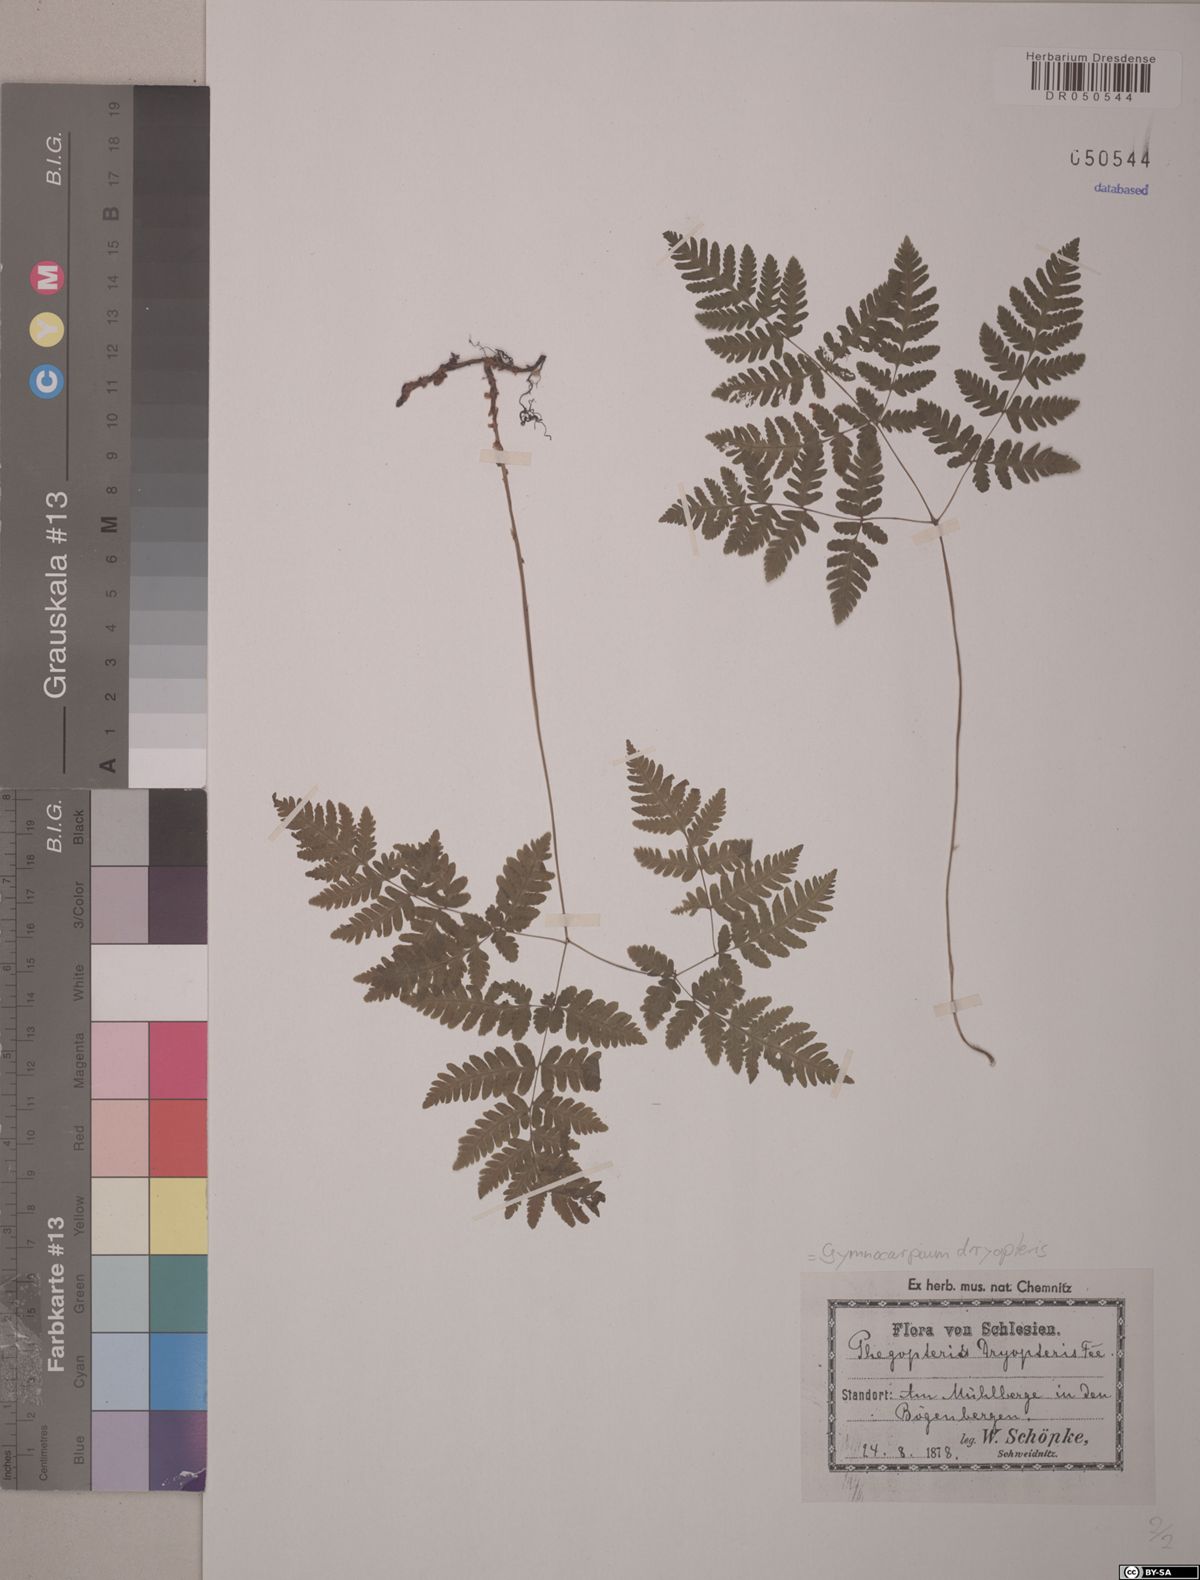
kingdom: Plantae
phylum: Tracheophyta
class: Polypodiopsida
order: Polypodiales
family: Cystopteridaceae
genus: Gymnocarpium
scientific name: Gymnocarpium dryopteris
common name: Oak fern
